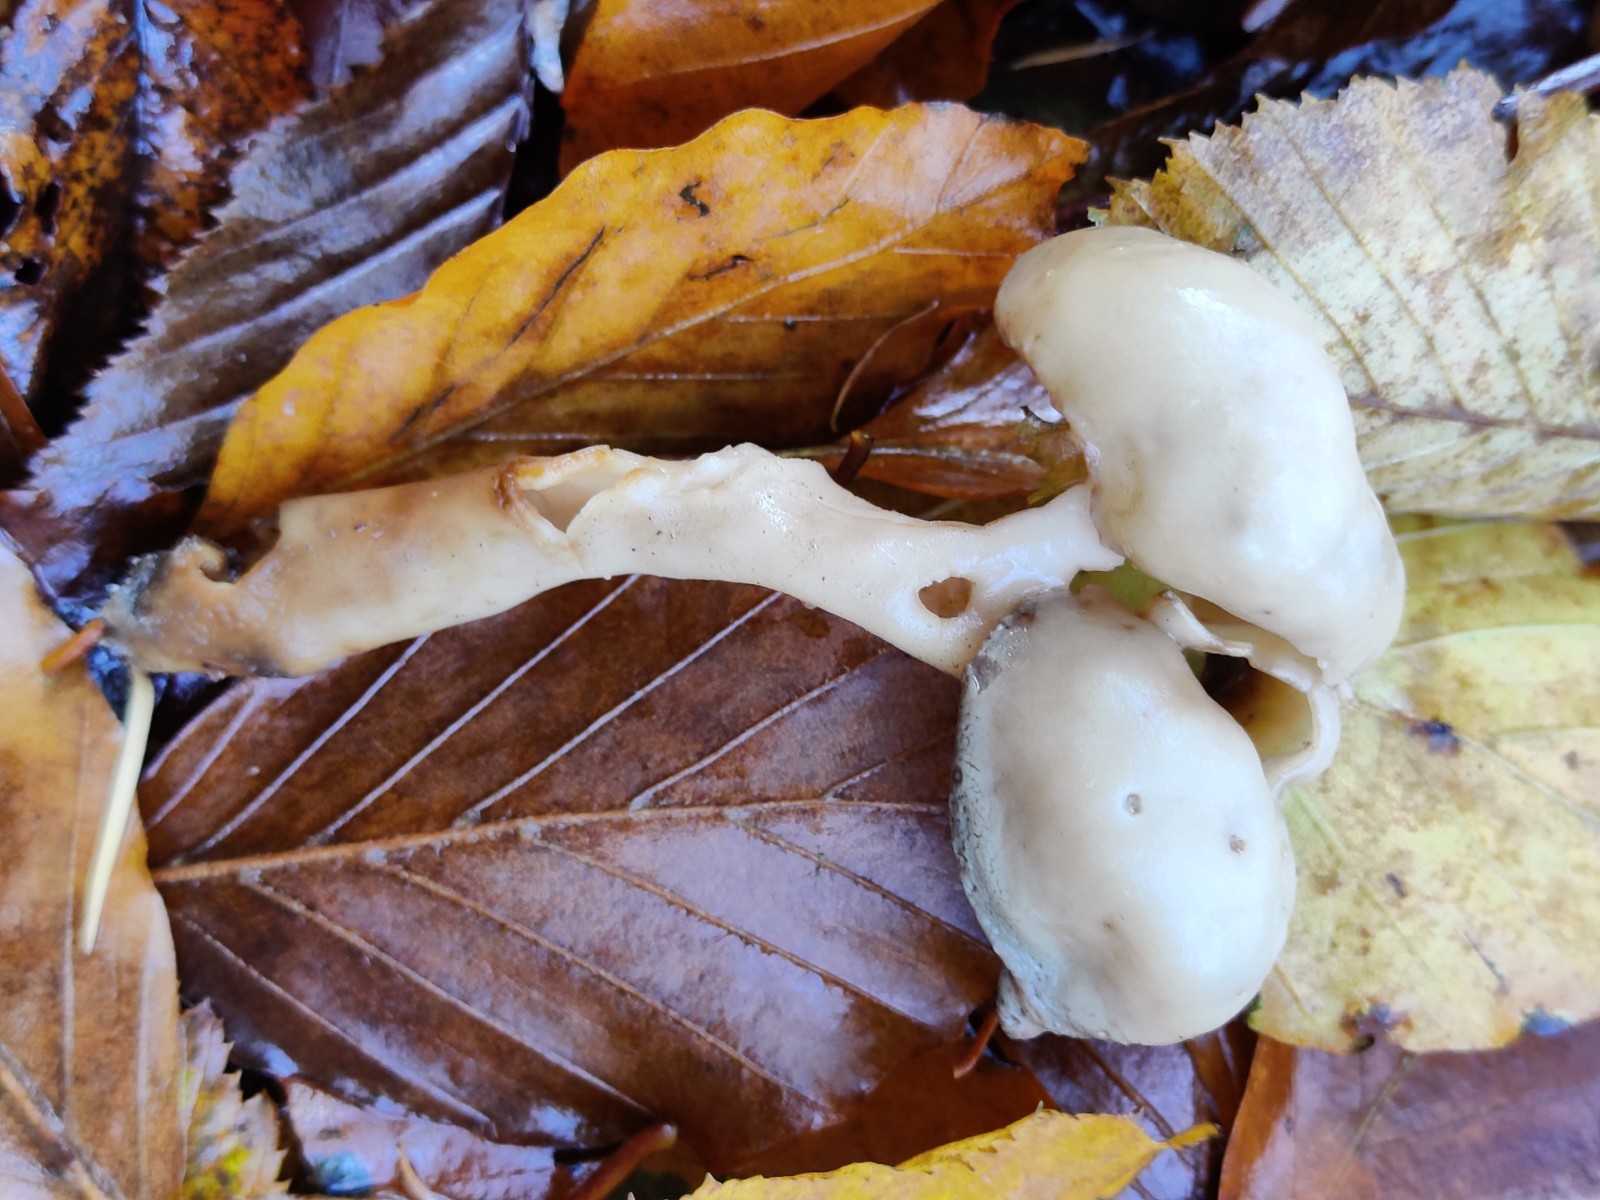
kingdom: Fungi
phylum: Ascomycota
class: Pezizomycetes
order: Pezizales
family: Helvellaceae
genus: Helvella
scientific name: Helvella elastica
